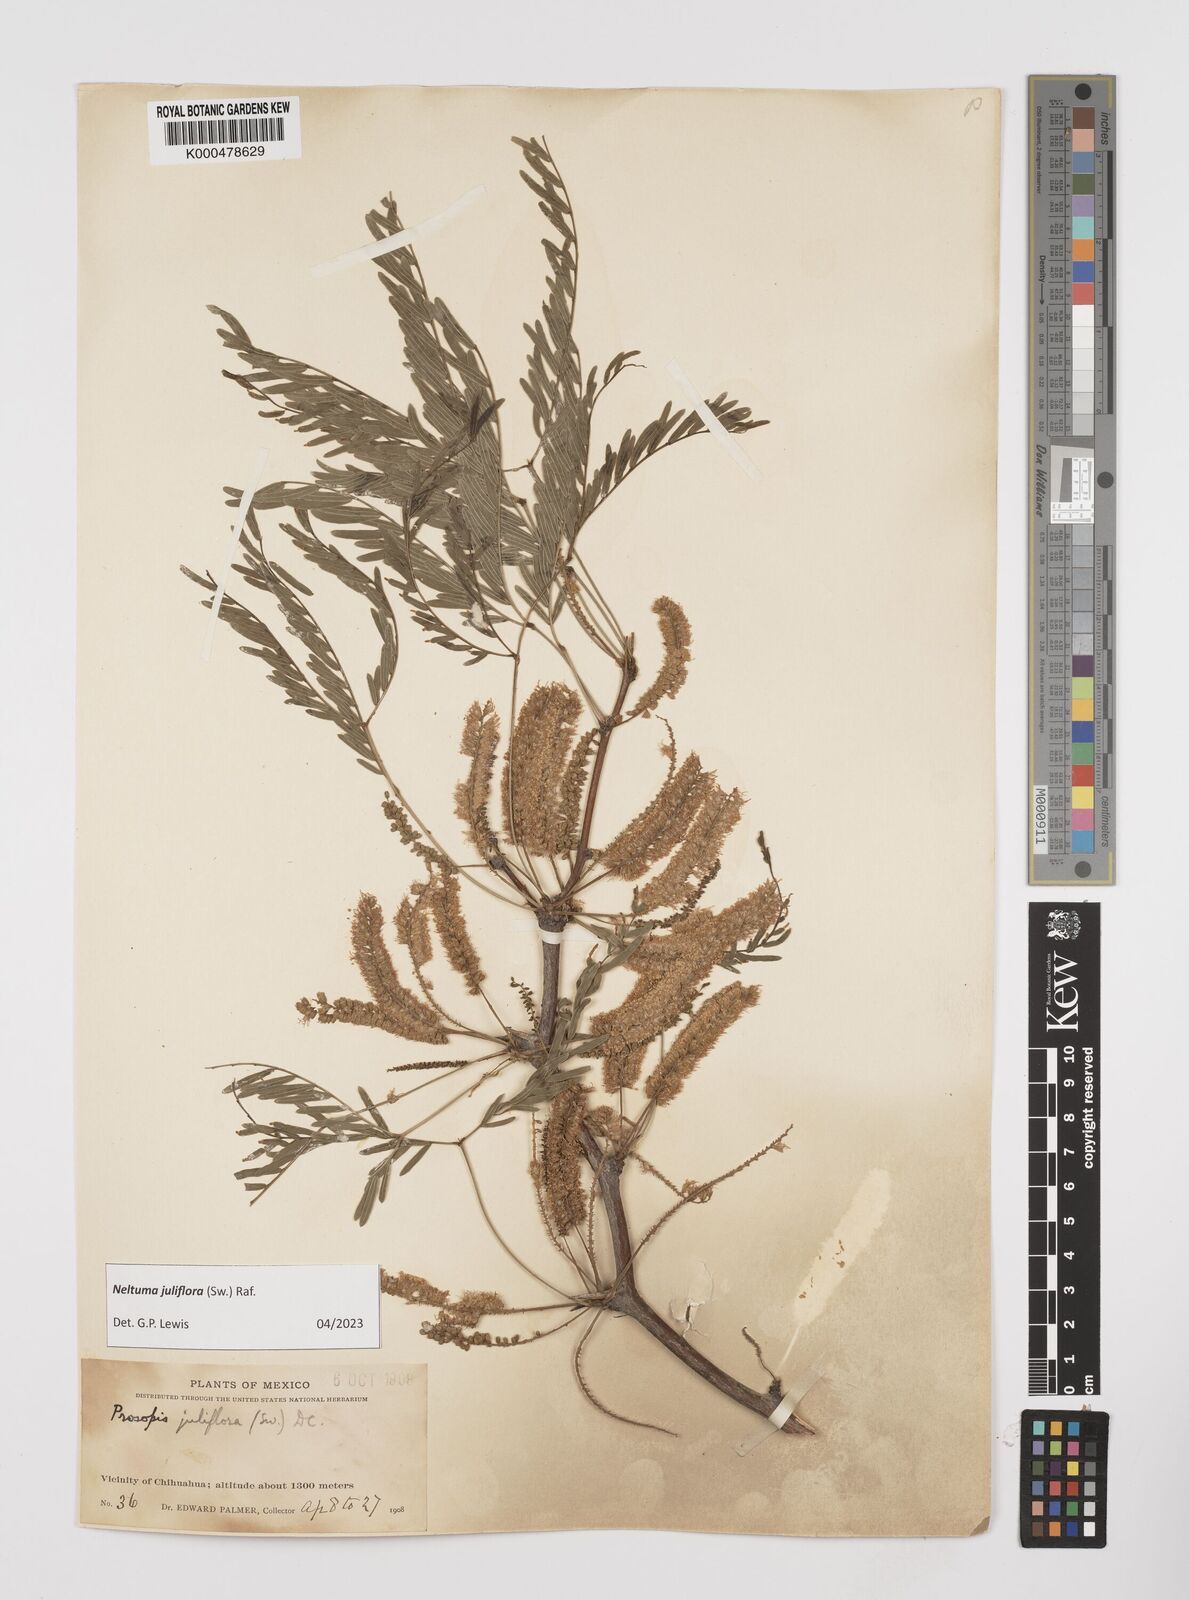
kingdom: Plantae
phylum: Tracheophyta
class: Magnoliopsida
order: Fabales
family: Fabaceae
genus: Prosopis
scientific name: Prosopis juliflora
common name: Mesquite
